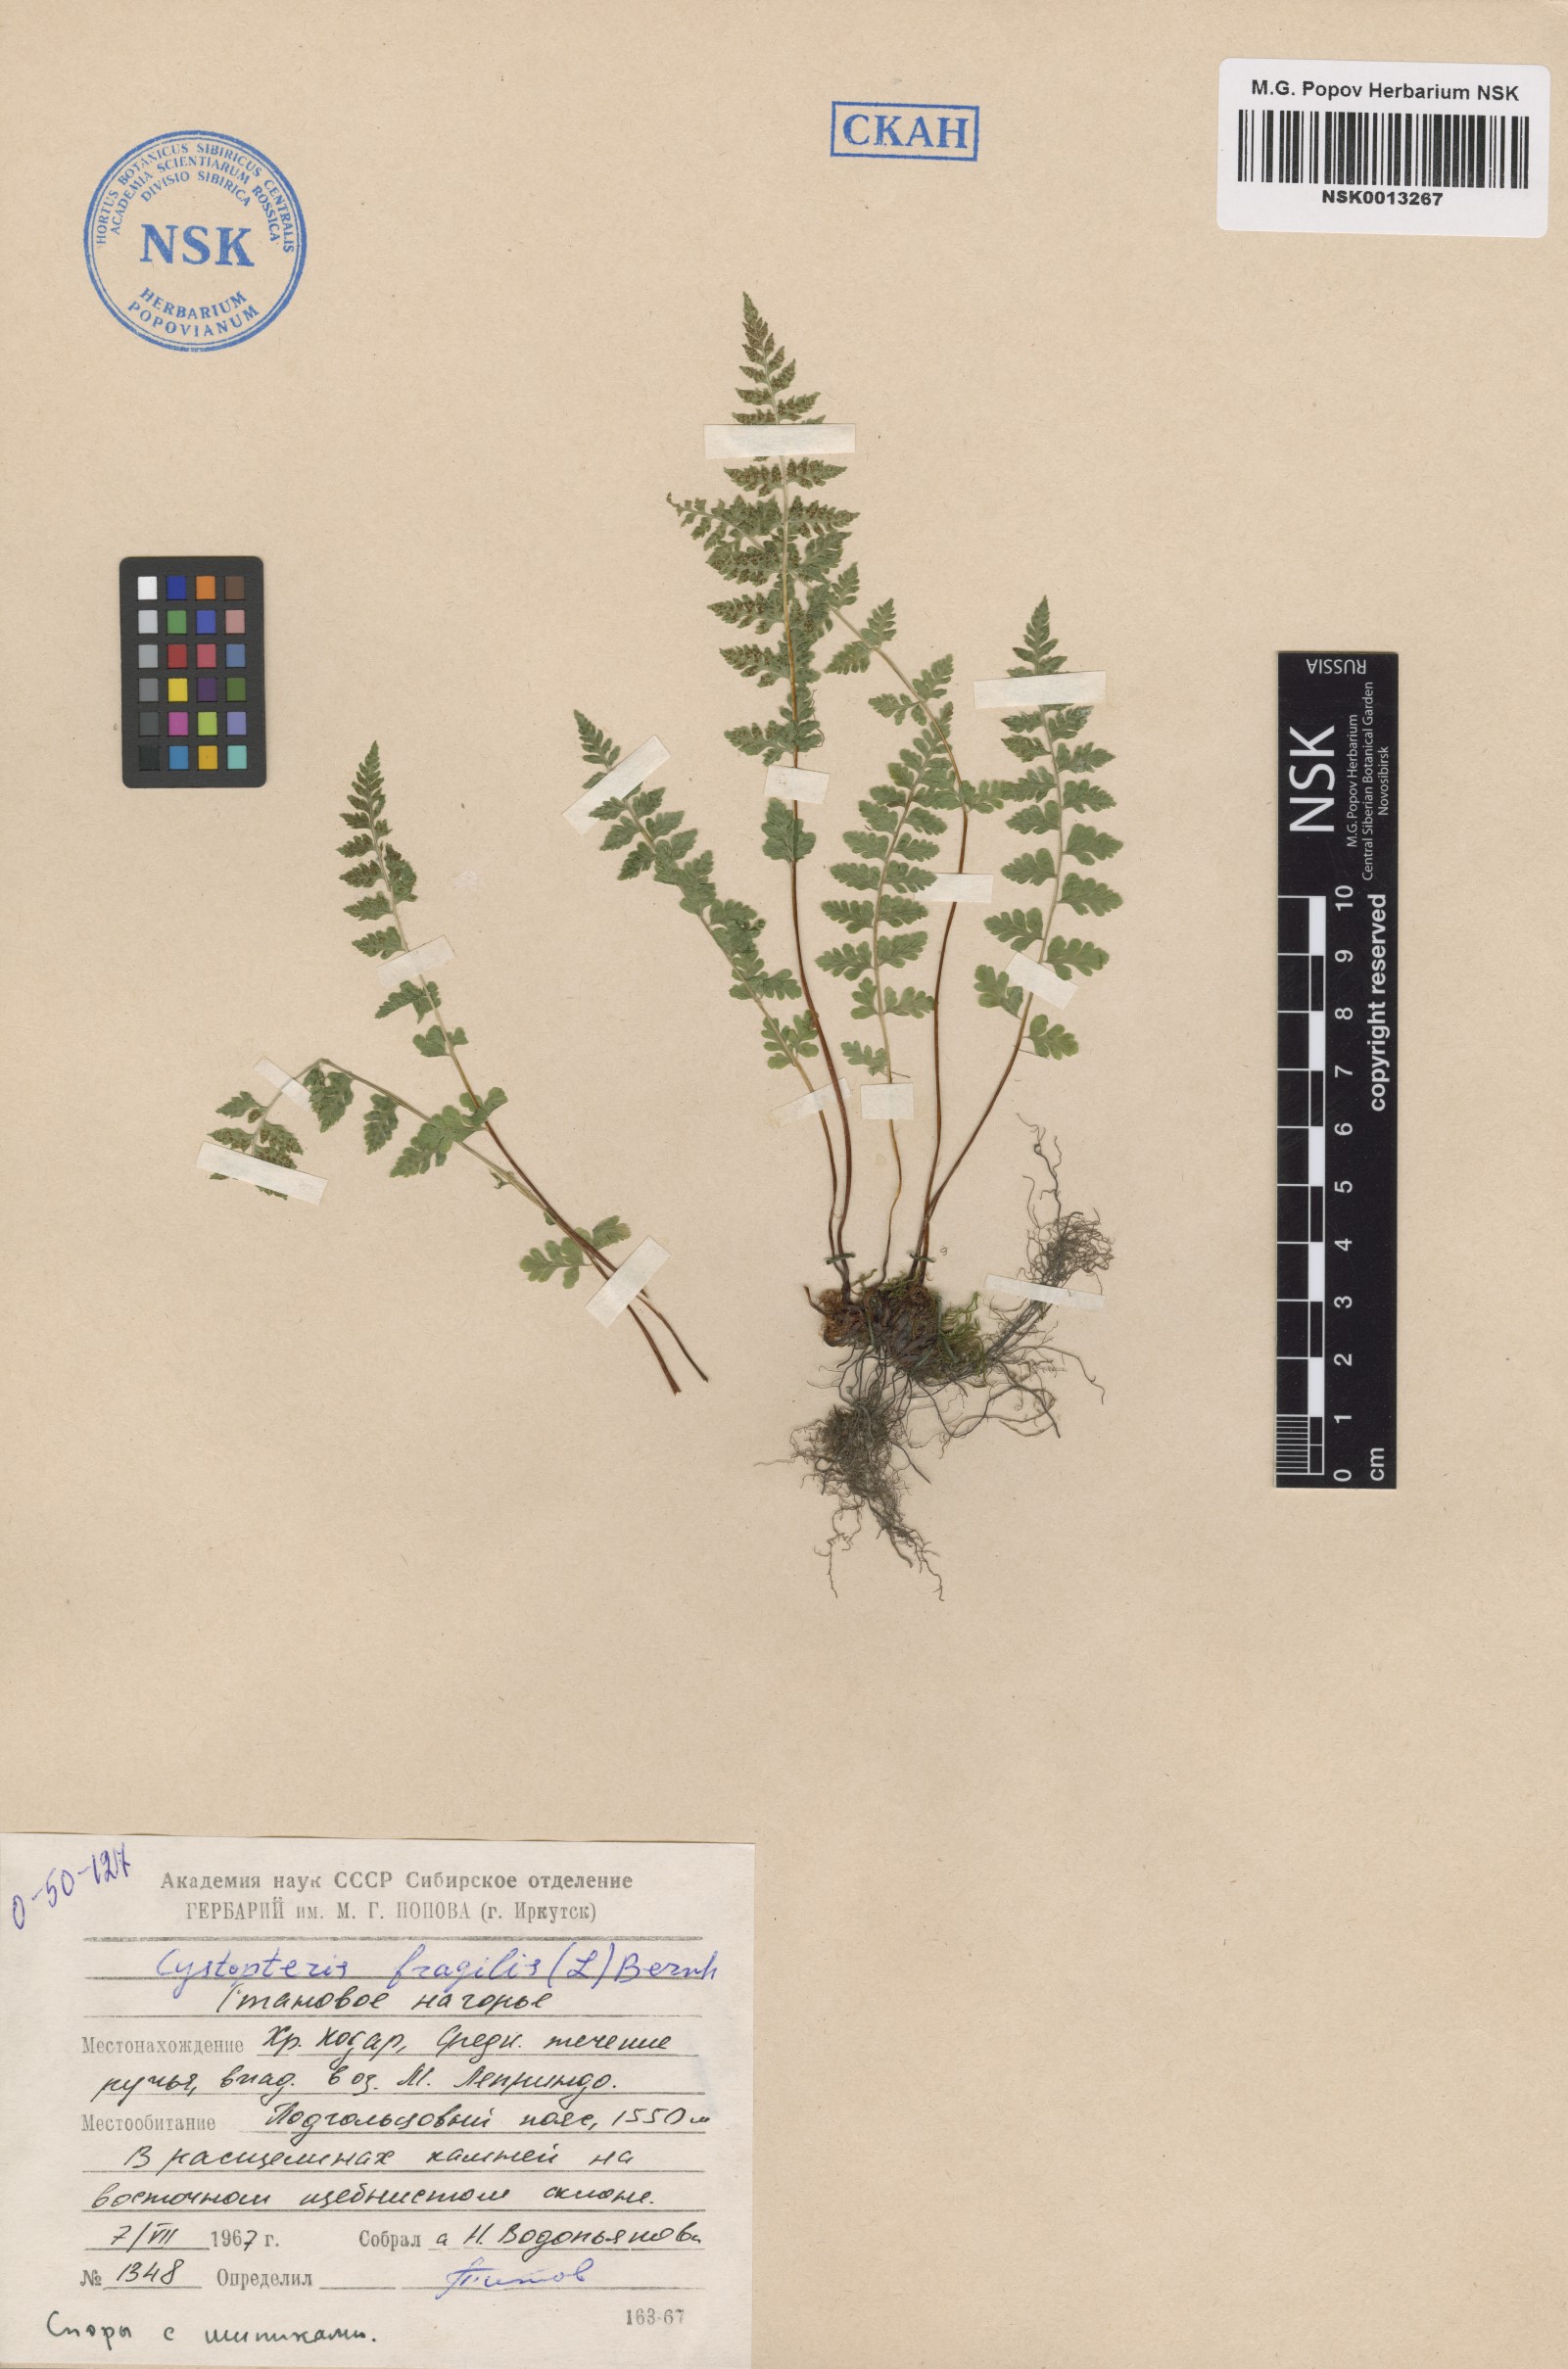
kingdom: Plantae
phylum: Tracheophyta
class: Polypodiopsida
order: Polypodiales
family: Cystopteridaceae
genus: Cystopteris
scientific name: Cystopteris fragilis
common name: Brittle bladder fern
